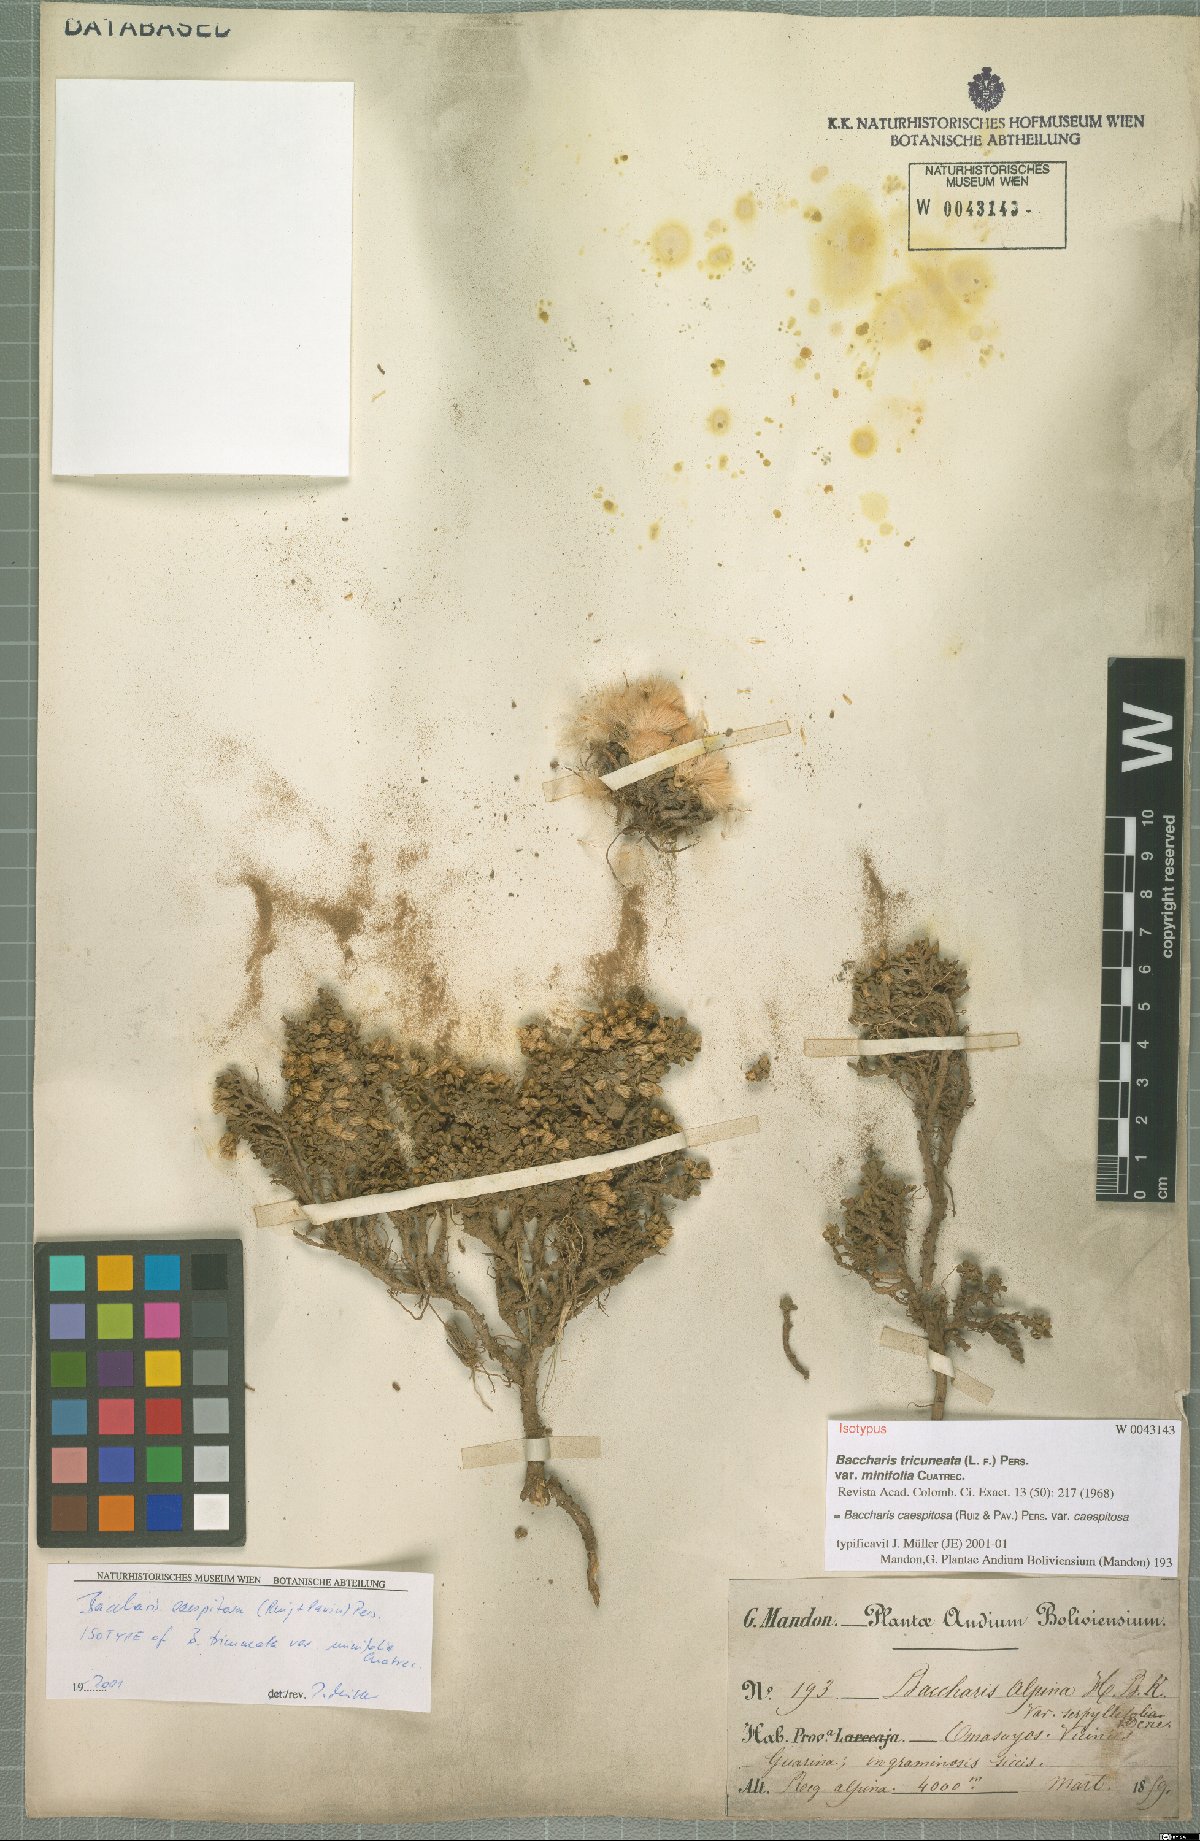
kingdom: Plantae
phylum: Tracheophyta
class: Magnoliopsida
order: Asterales
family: Asteraceae
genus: Baccharis
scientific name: Baccharis caespitosa
